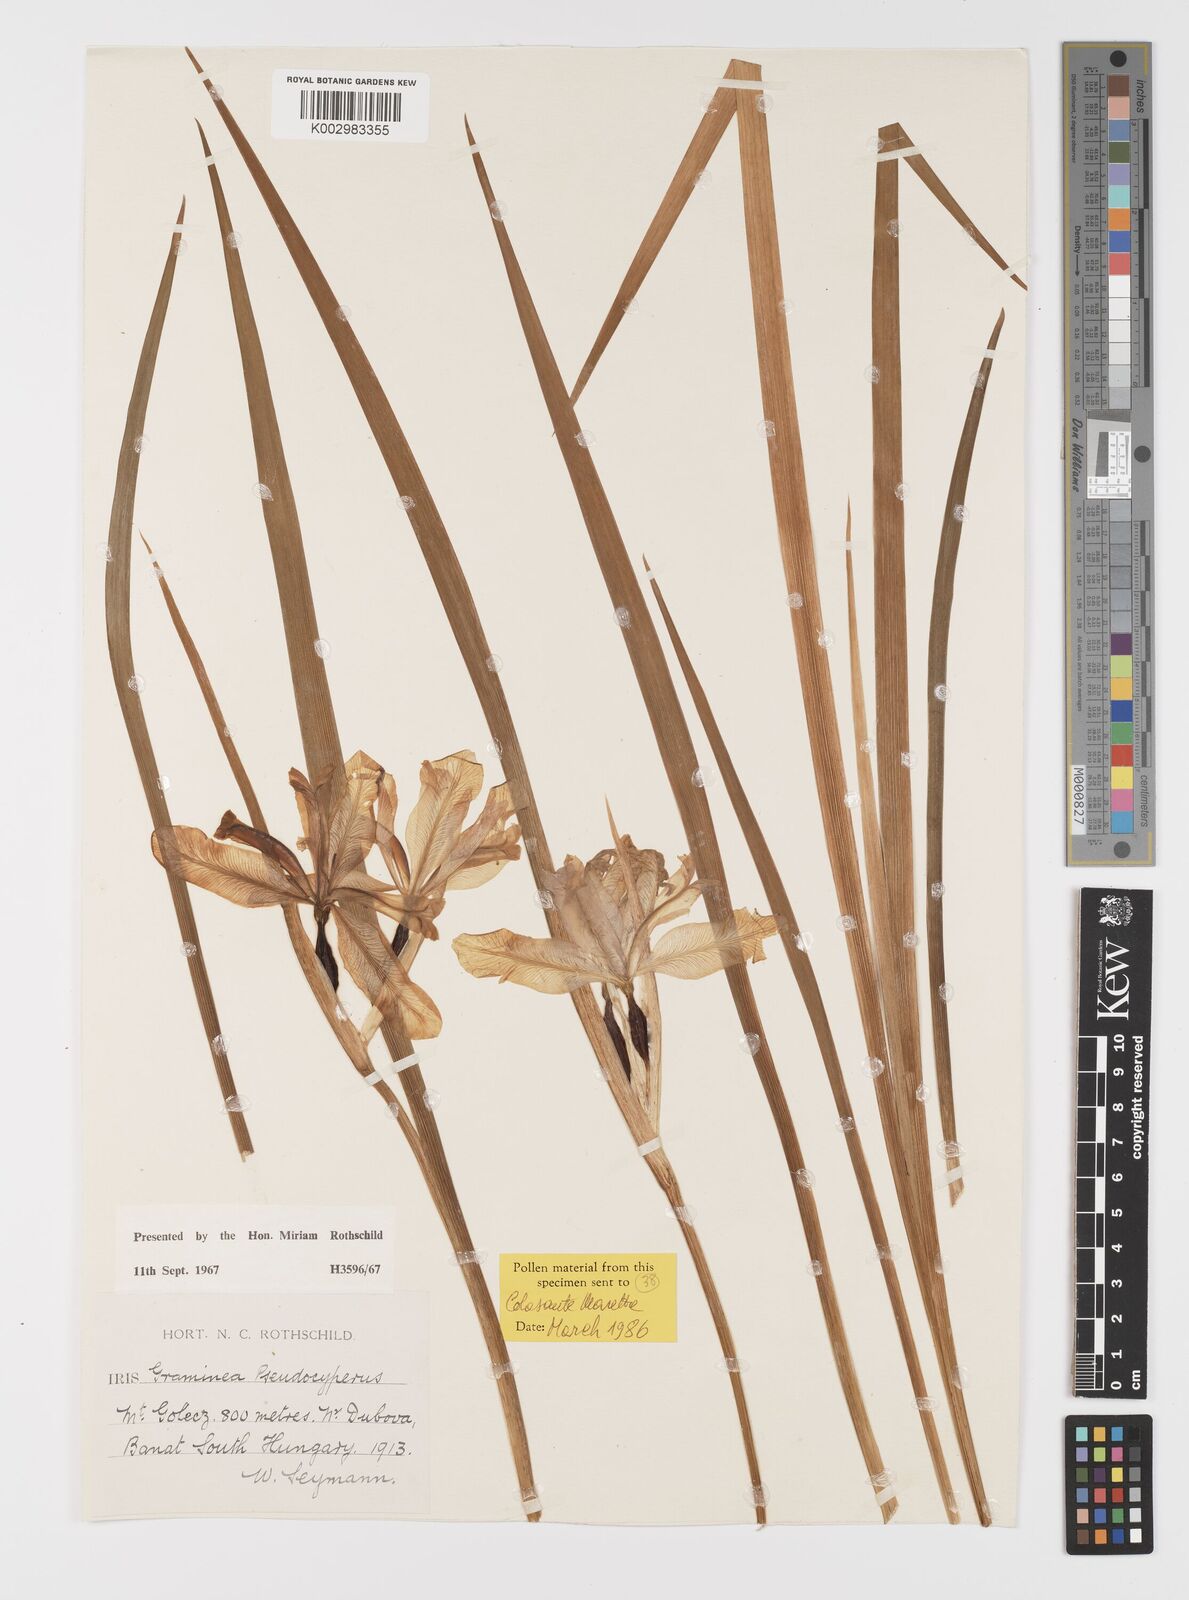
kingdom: Plantae
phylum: Tracheophyta
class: Liliopsida
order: Asparagales
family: Iridaceae
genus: Iris
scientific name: Iris graminea
